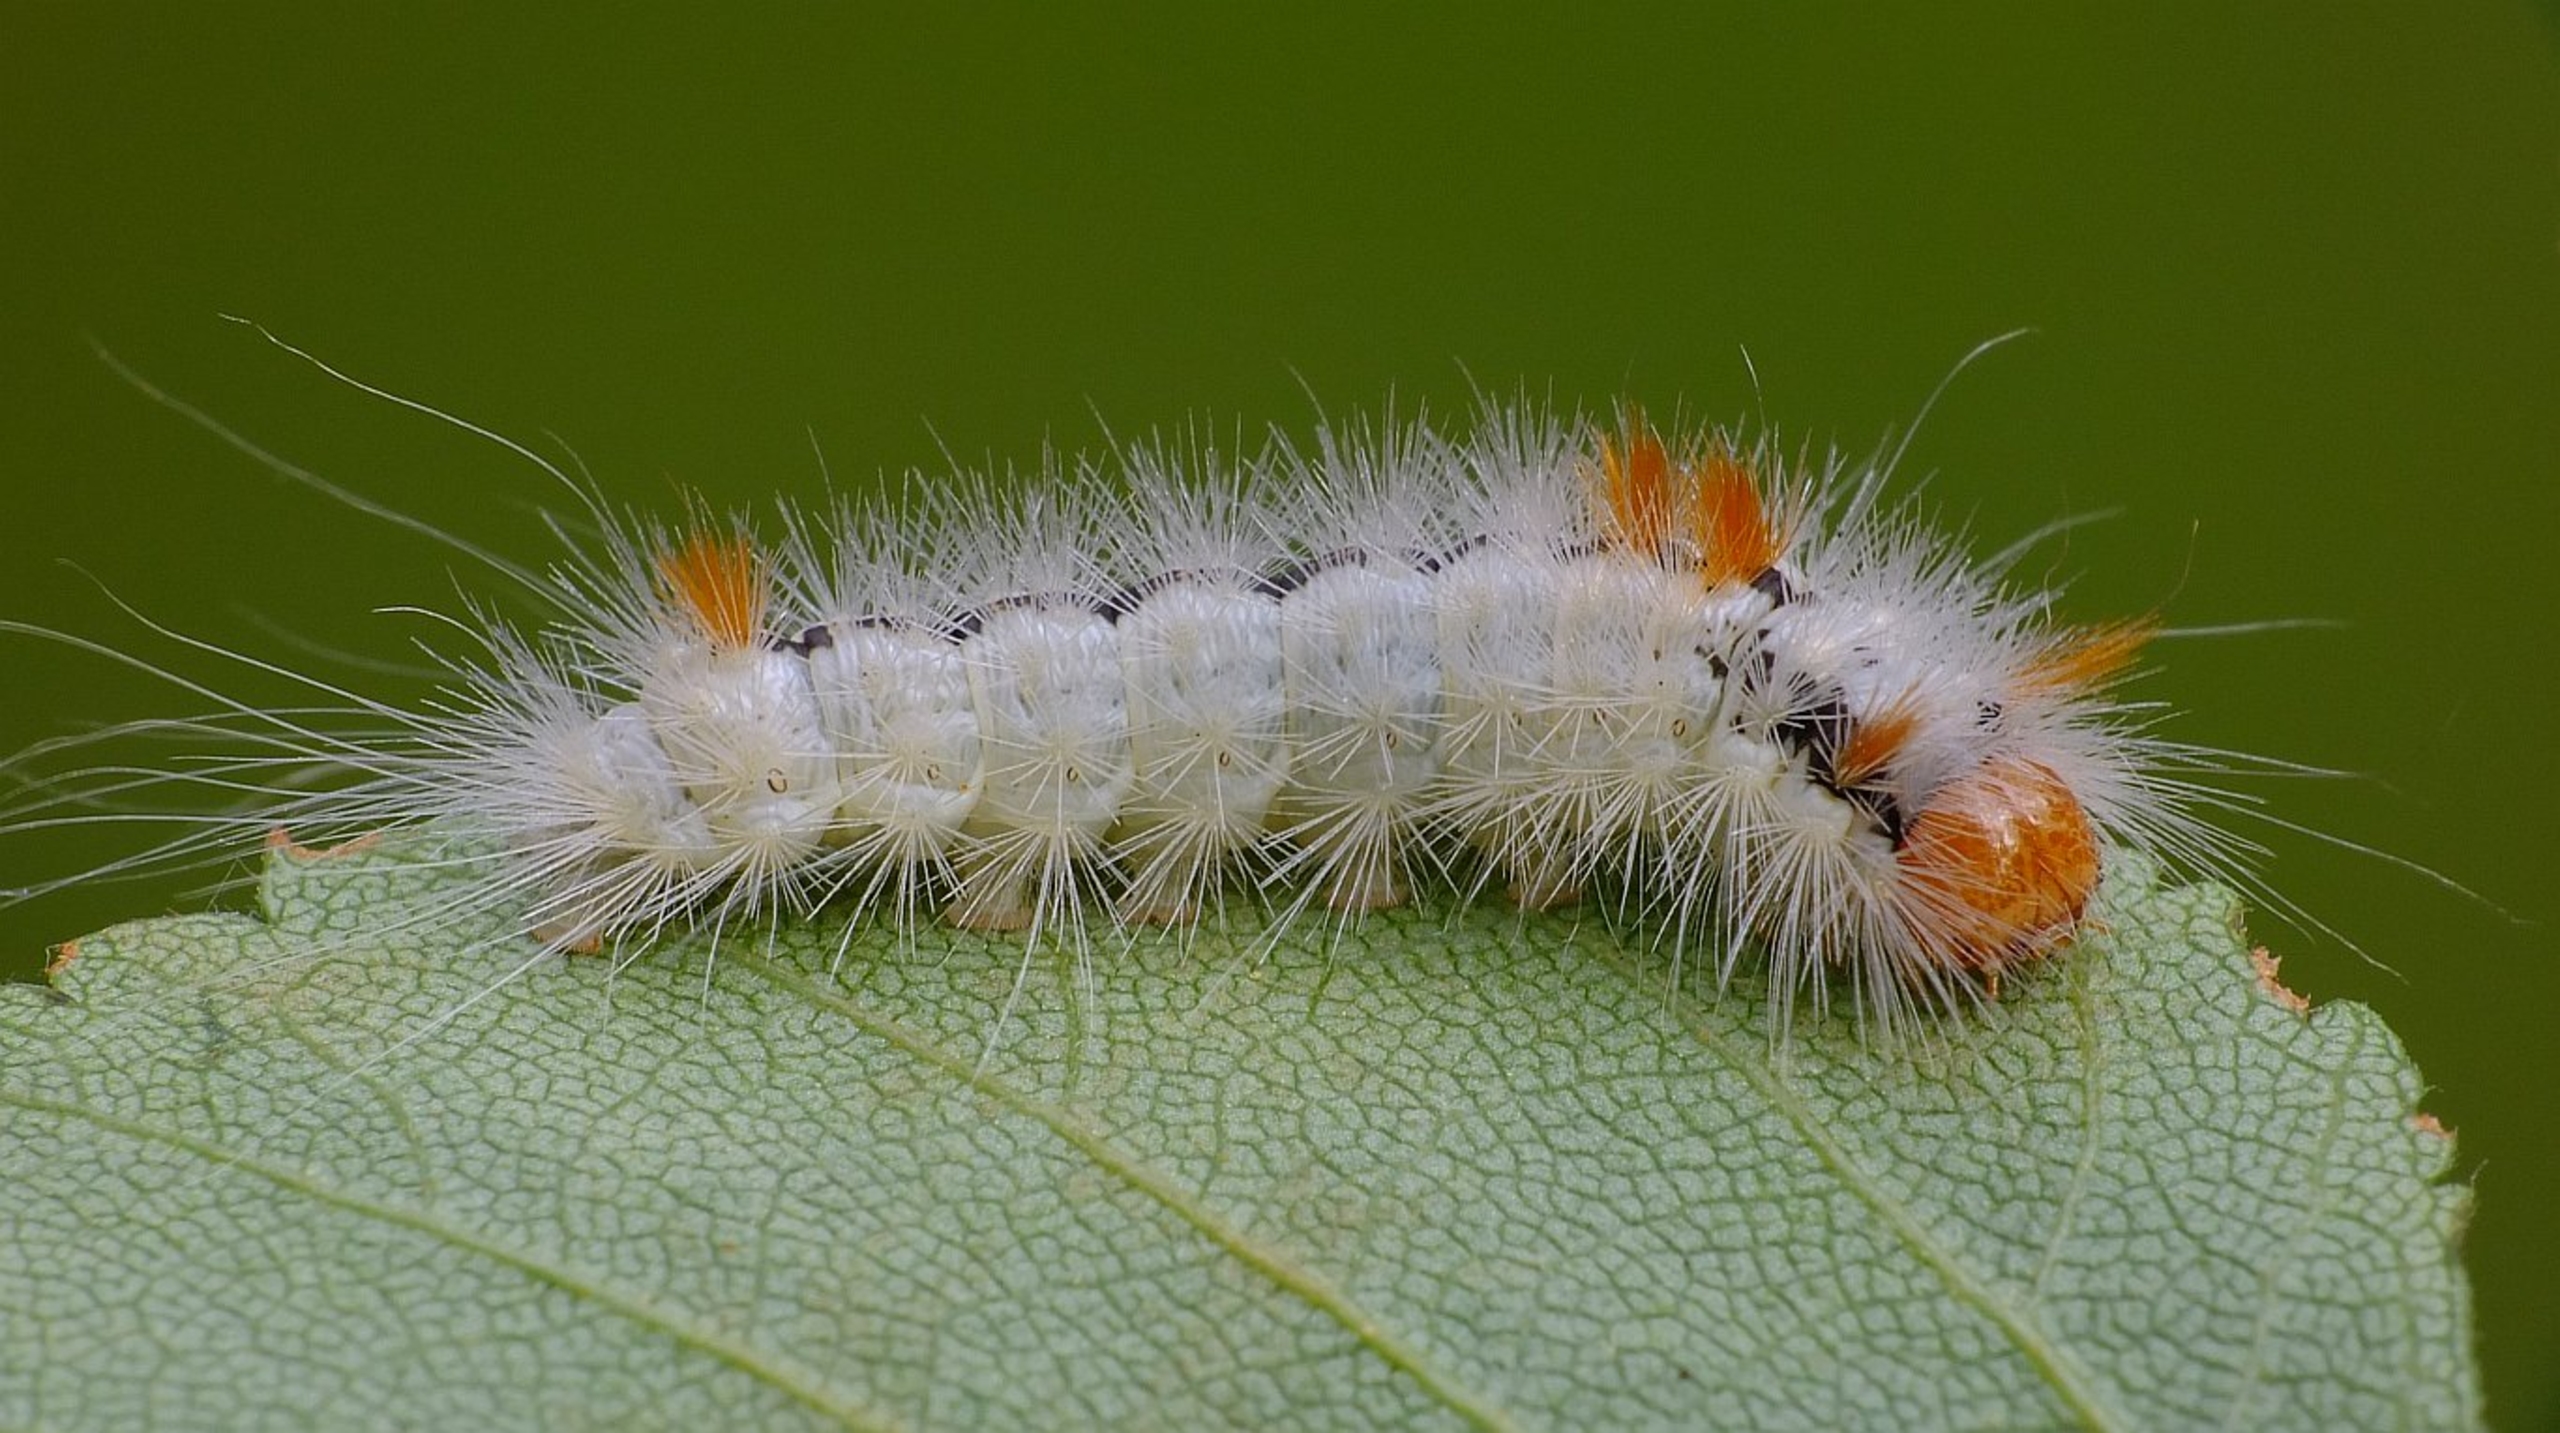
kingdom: Animalia
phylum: Arthropoda
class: Insecta
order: Lepidoptera
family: Noctuidae
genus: Colocasia
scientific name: Colocasia coryli
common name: Penselugle
